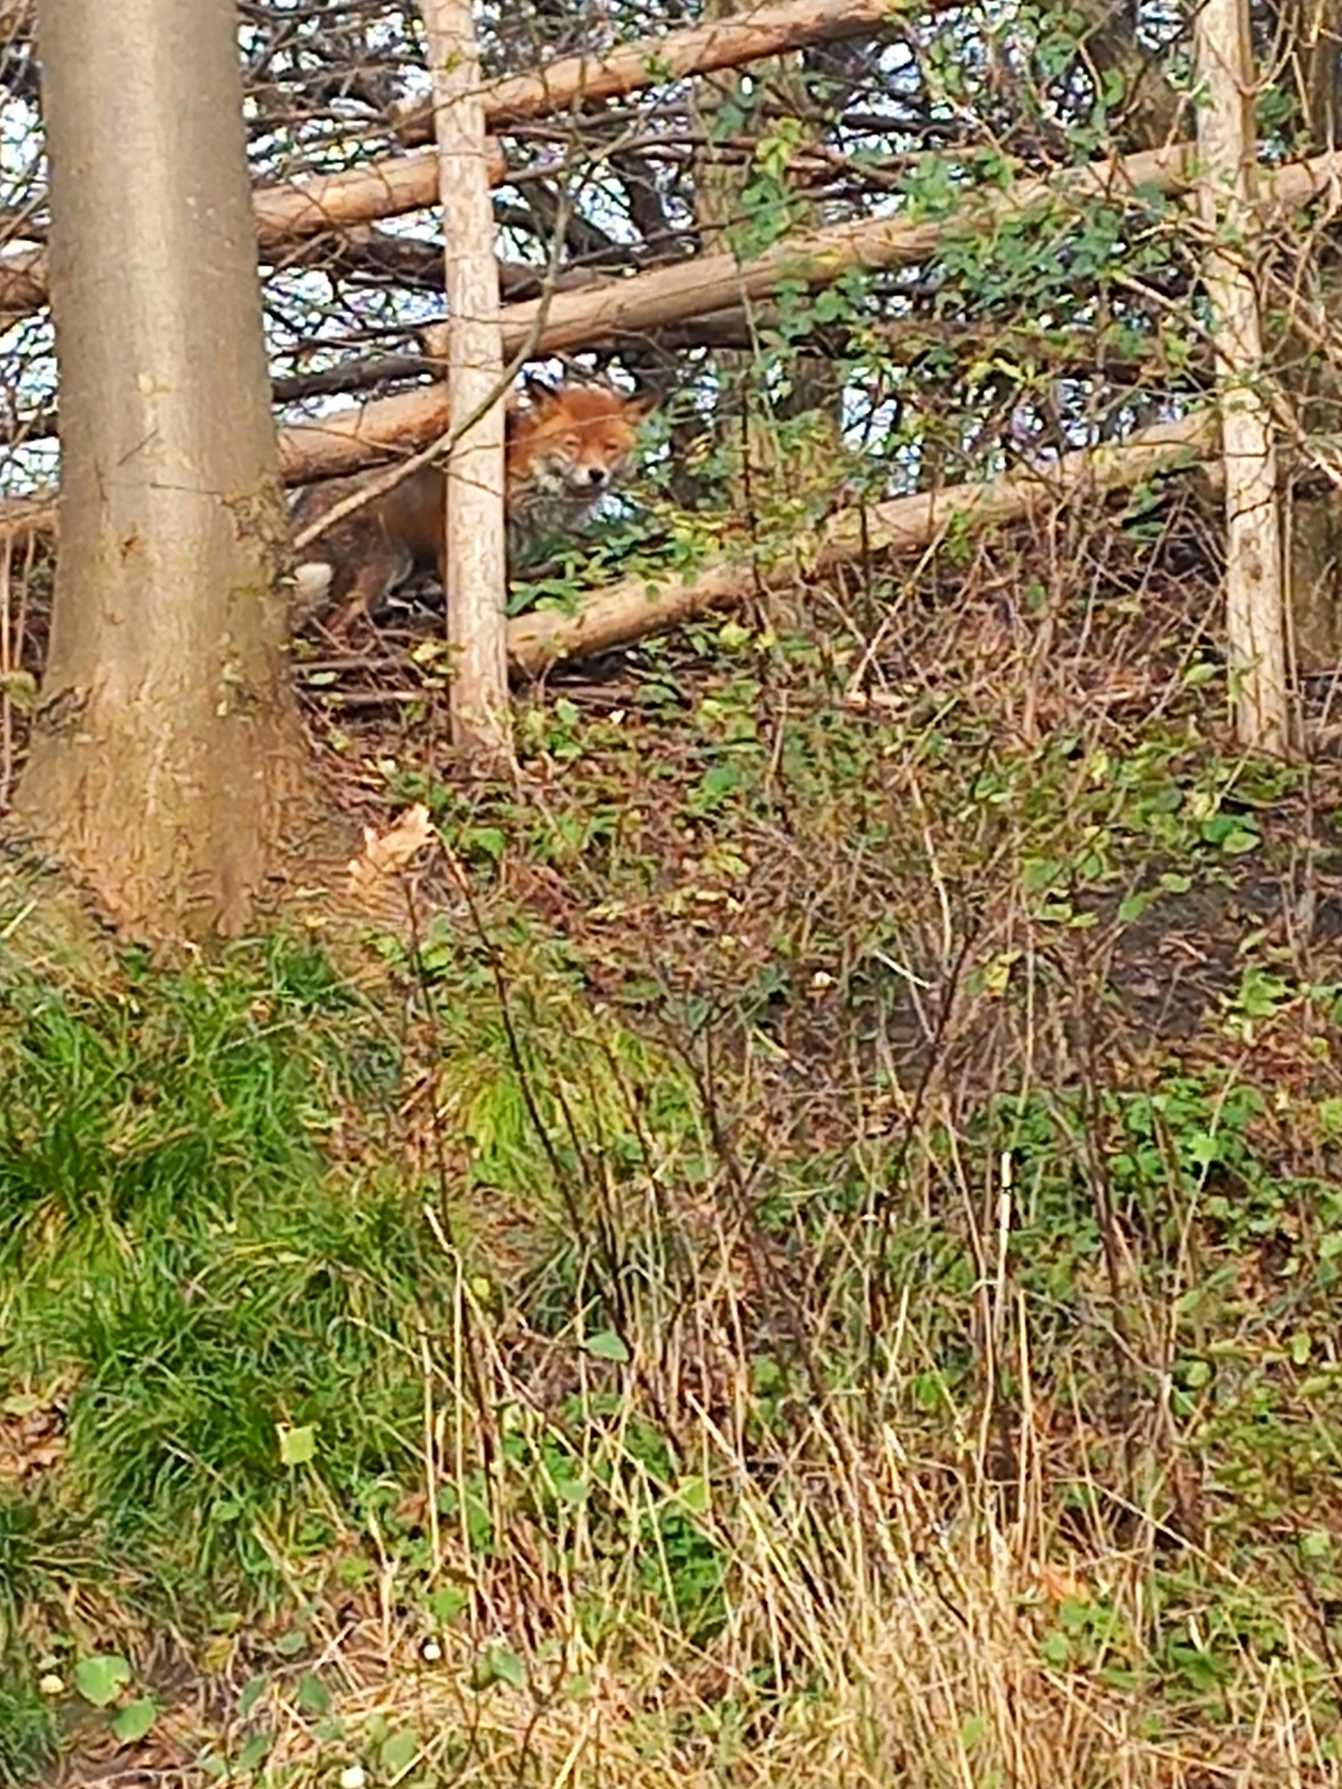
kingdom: Animalia
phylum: Chordata
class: Mammalia
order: Carnivora
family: Canidae
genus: Vulpes
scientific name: Vulpes vulpes
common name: Ræv
